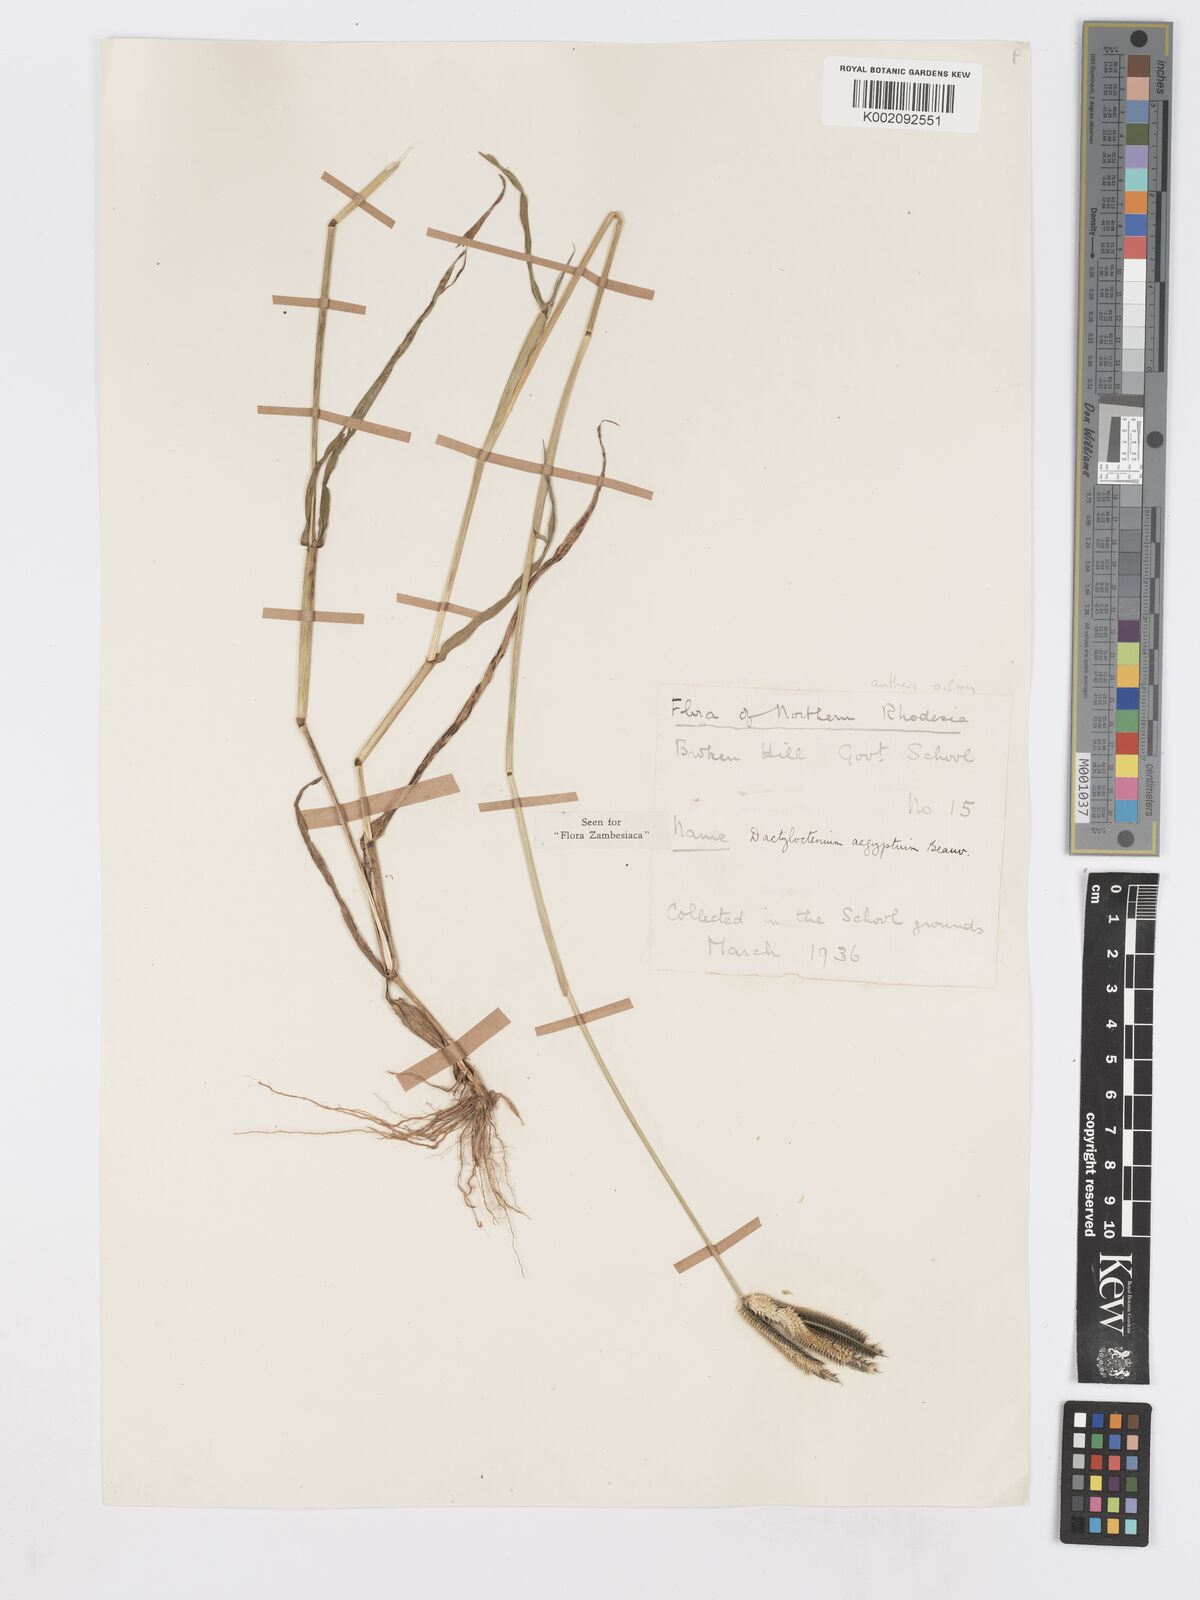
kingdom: Plantae
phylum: Tracheophyta
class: Liliopsida
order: Poales
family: Poaceae
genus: Dactyloctenium
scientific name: Dactyloctenium aegyptium
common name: Egyptian grass
